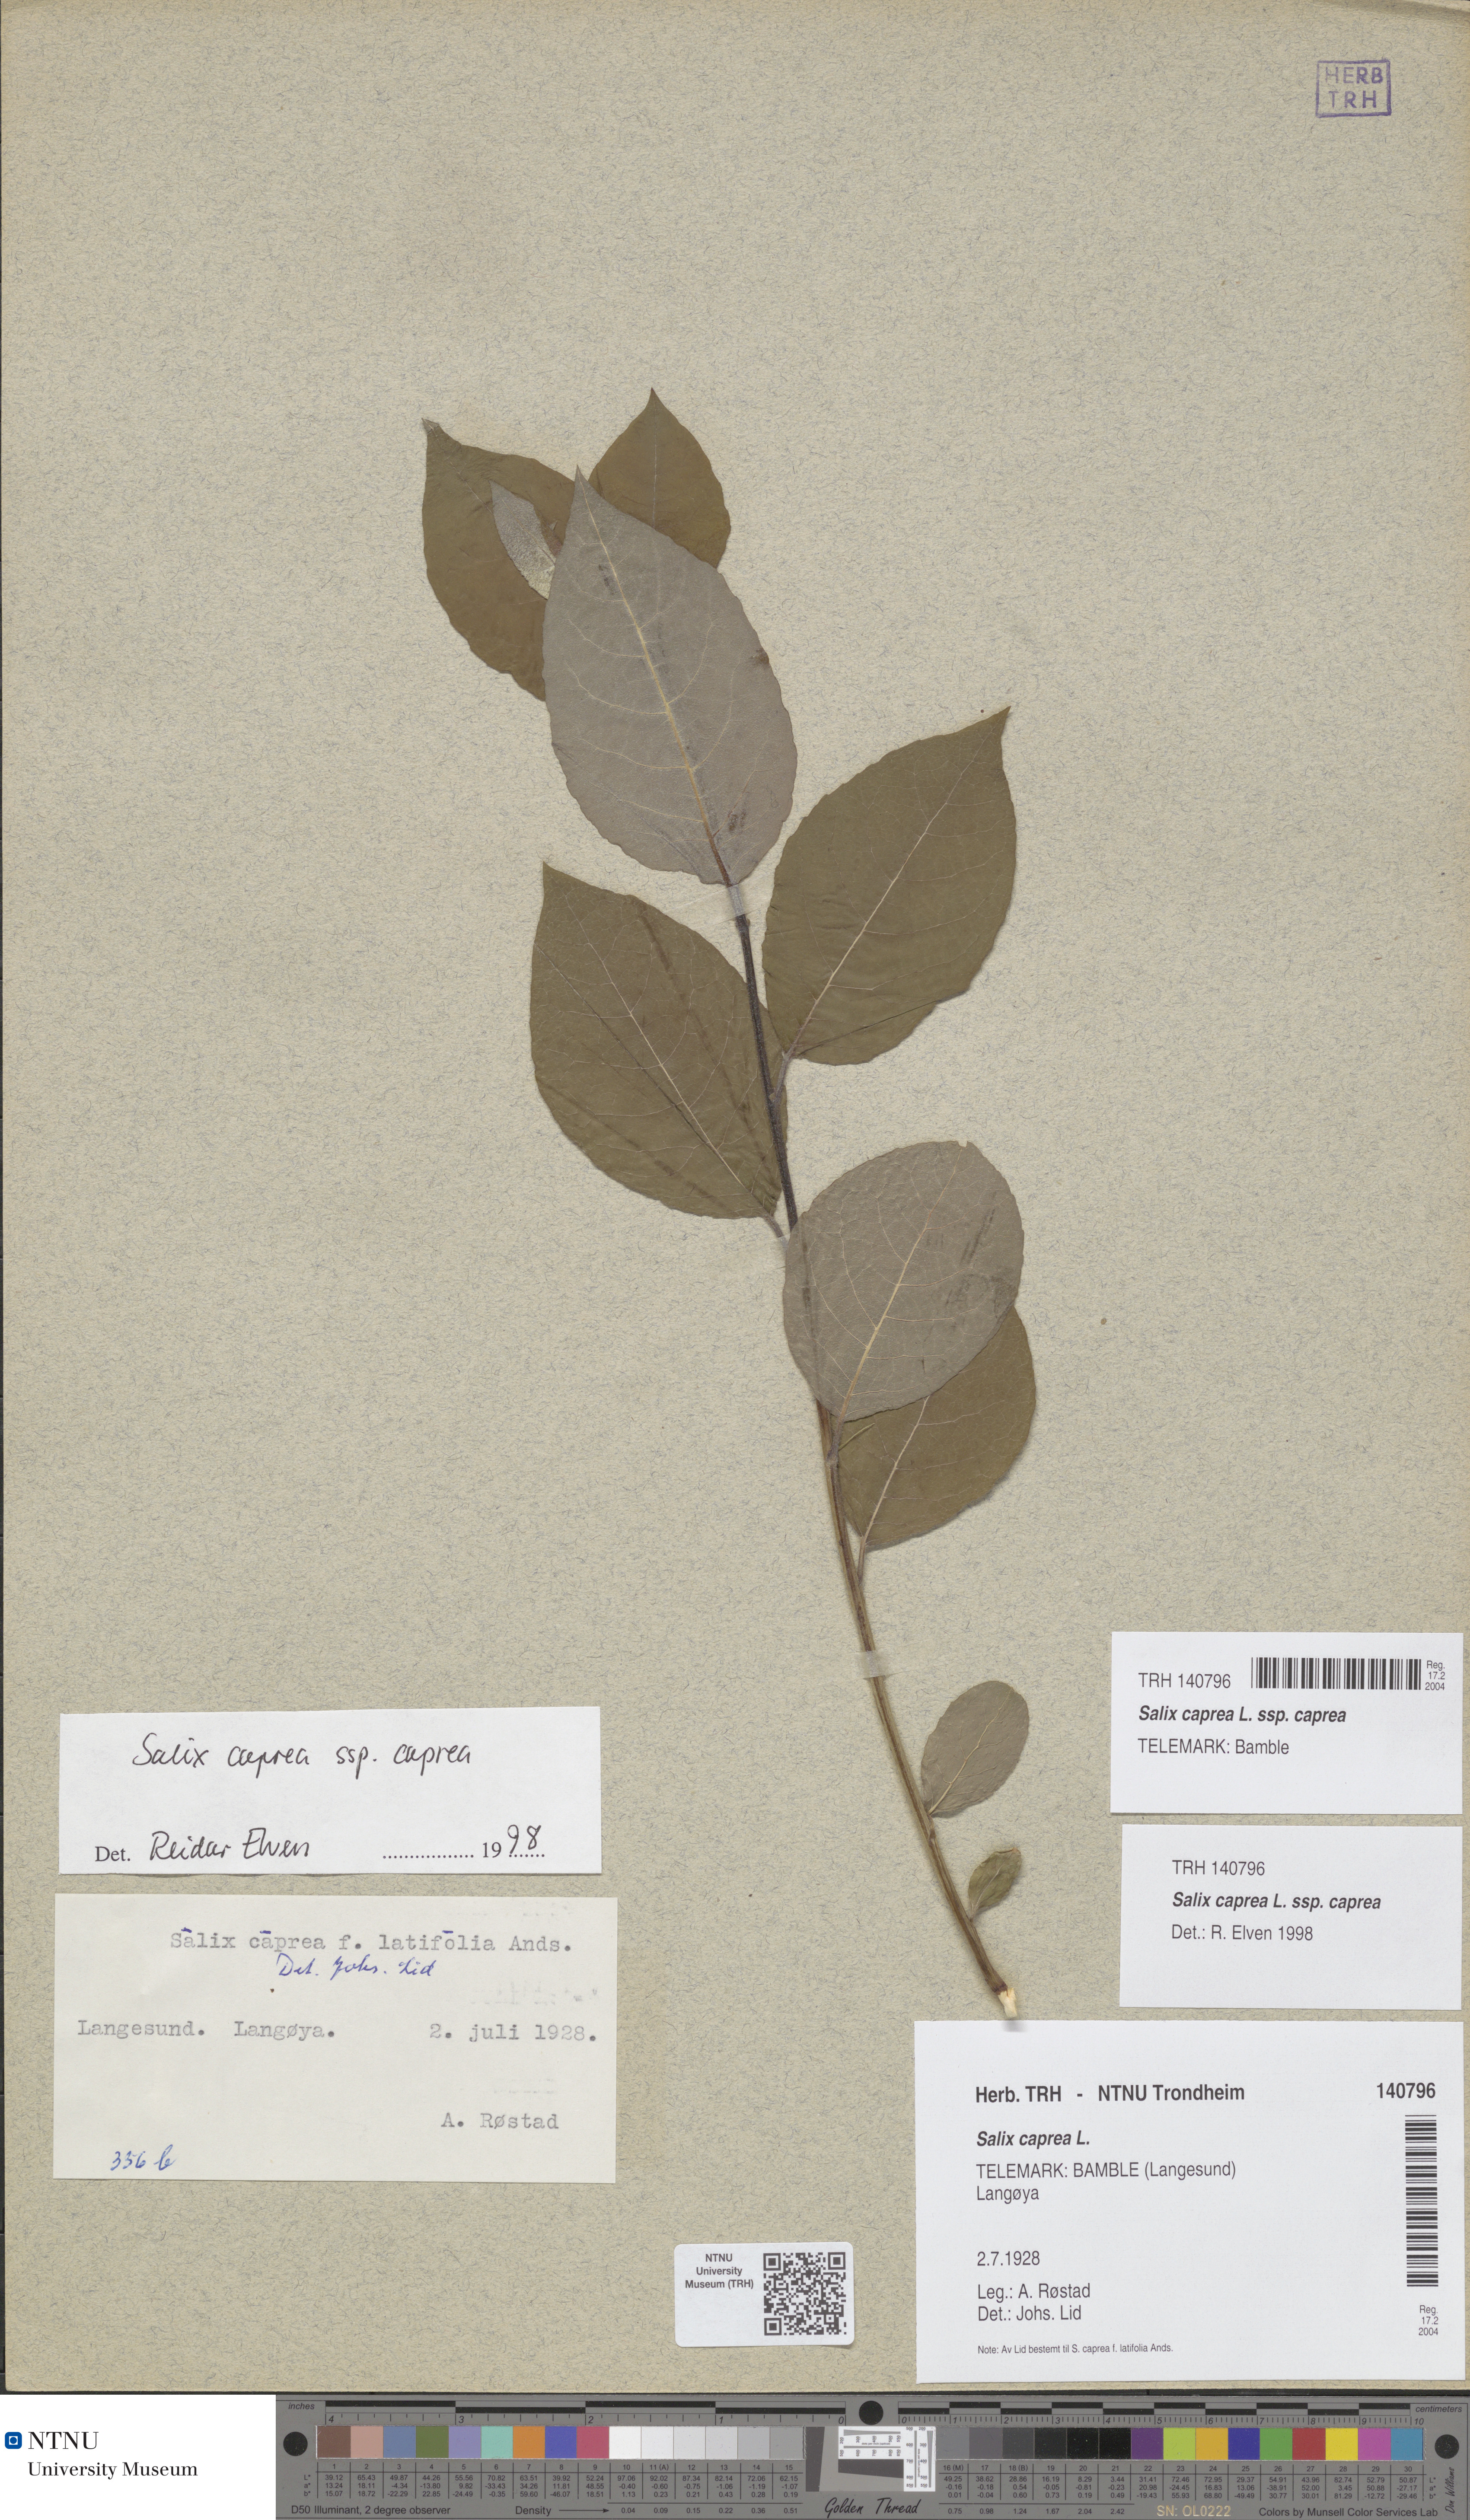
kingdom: Plantae
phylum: Tracheophyta
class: Magnoliopsida
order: Malpighiales
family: Salicaceae
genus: Salix
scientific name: Salix caprea
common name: Goat willow
